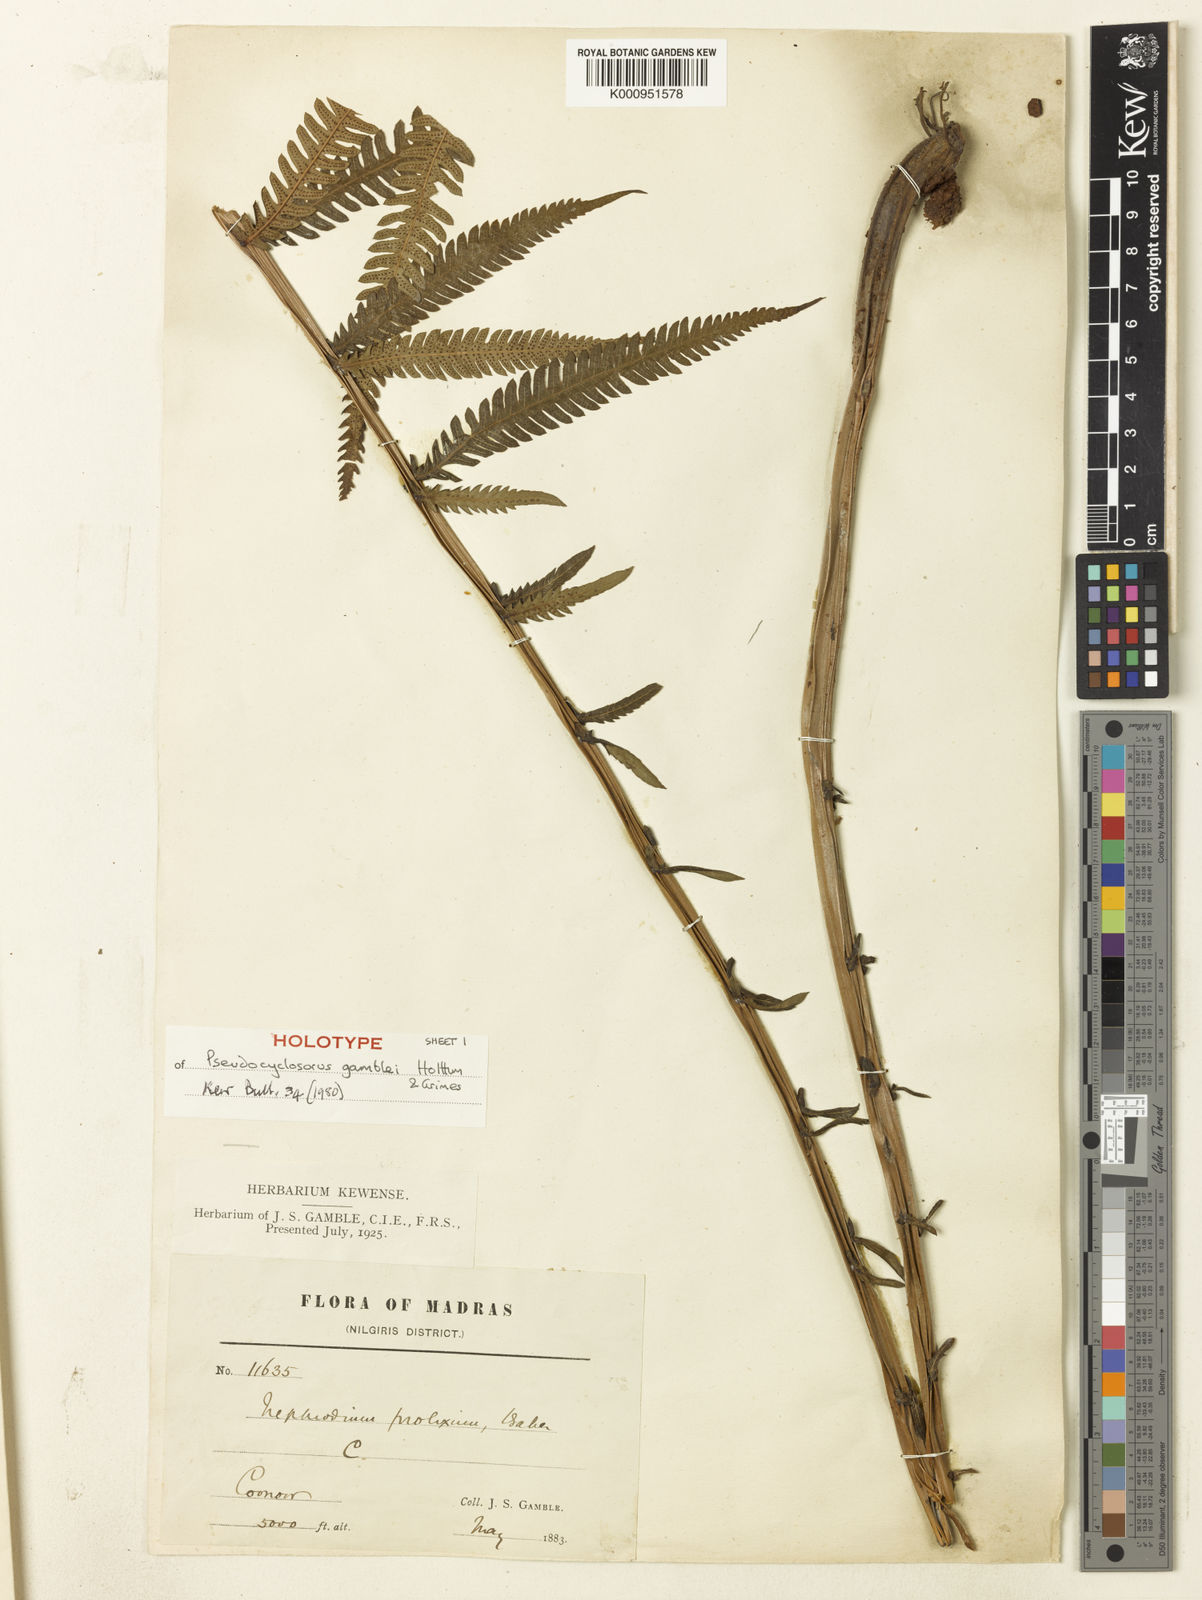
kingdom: Plantae
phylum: Tracheophyta
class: Polypodiopsida
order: Polypodiales
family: Thelypteridaceae
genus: Pseudocyclosorus
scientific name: Pseudocyclosorus tylodes
